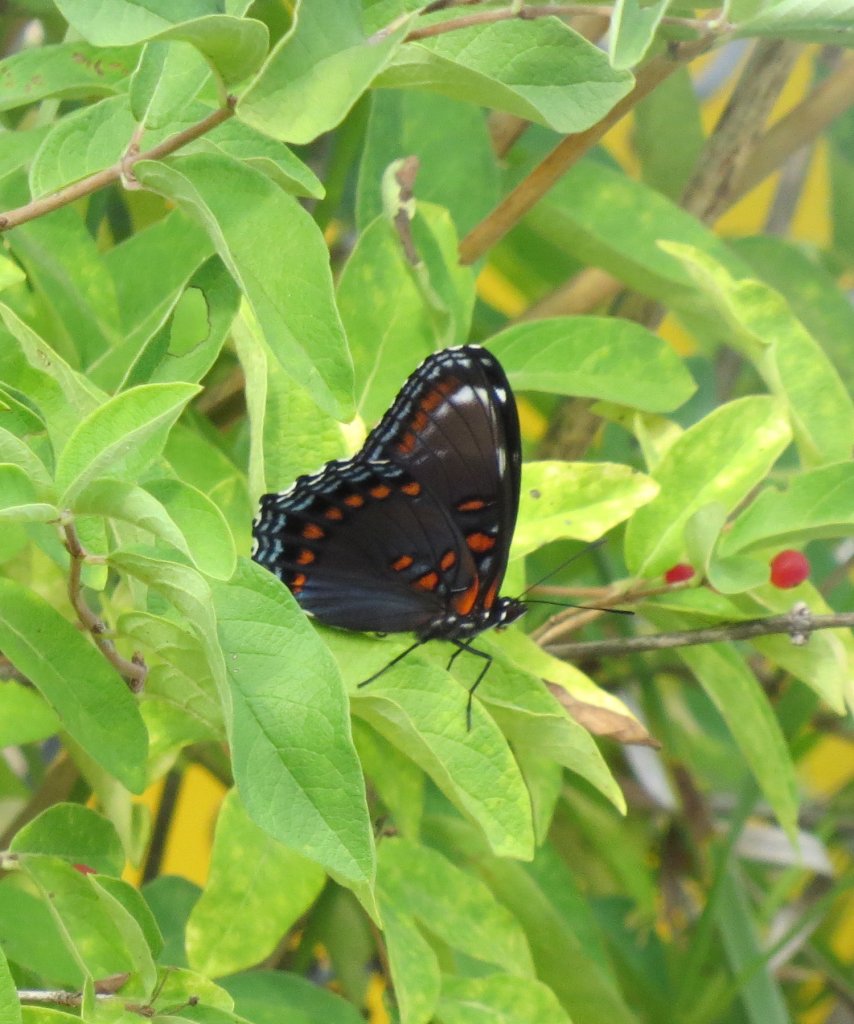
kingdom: Animalia
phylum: Arthropoda
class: Insecta
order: Lepidoptera
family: Nymphalidae
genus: Limenitis
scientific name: Limenitis astyanax
